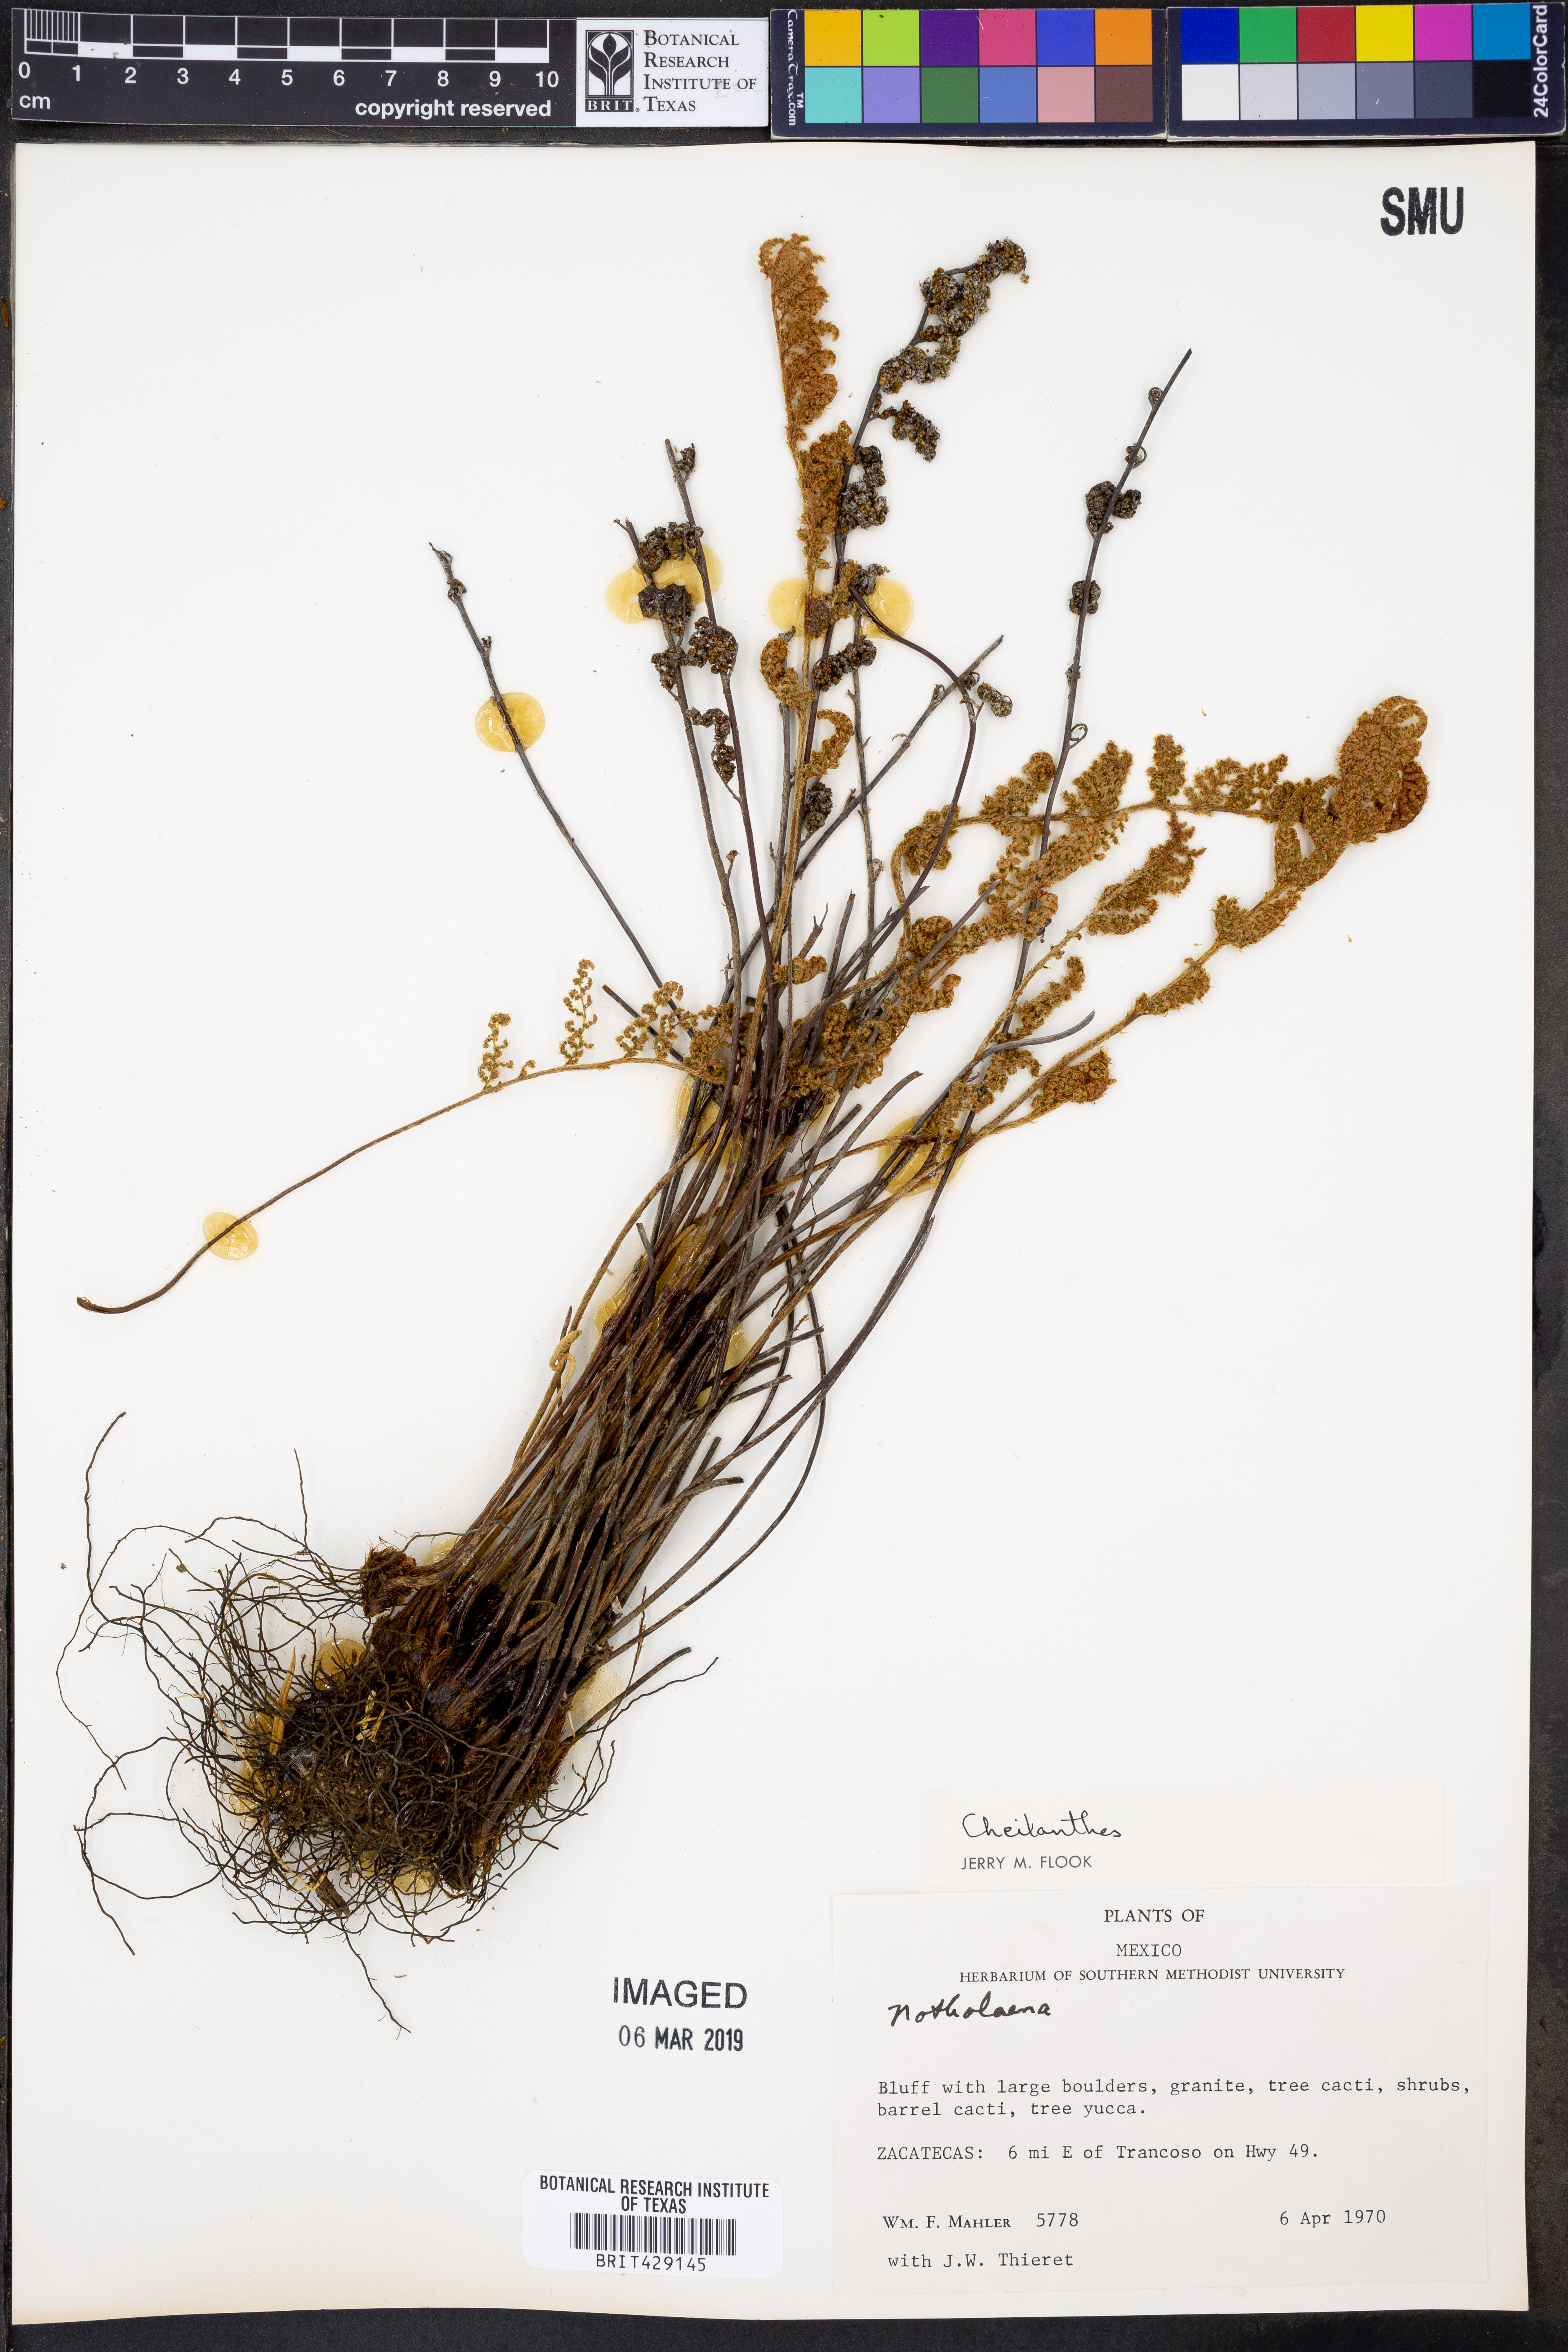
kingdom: Plantae
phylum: Tracheophyta
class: Polypodiopsida
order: Polypodiales
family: Pteridaceae
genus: Cheilanthes
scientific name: Cheilanthes
